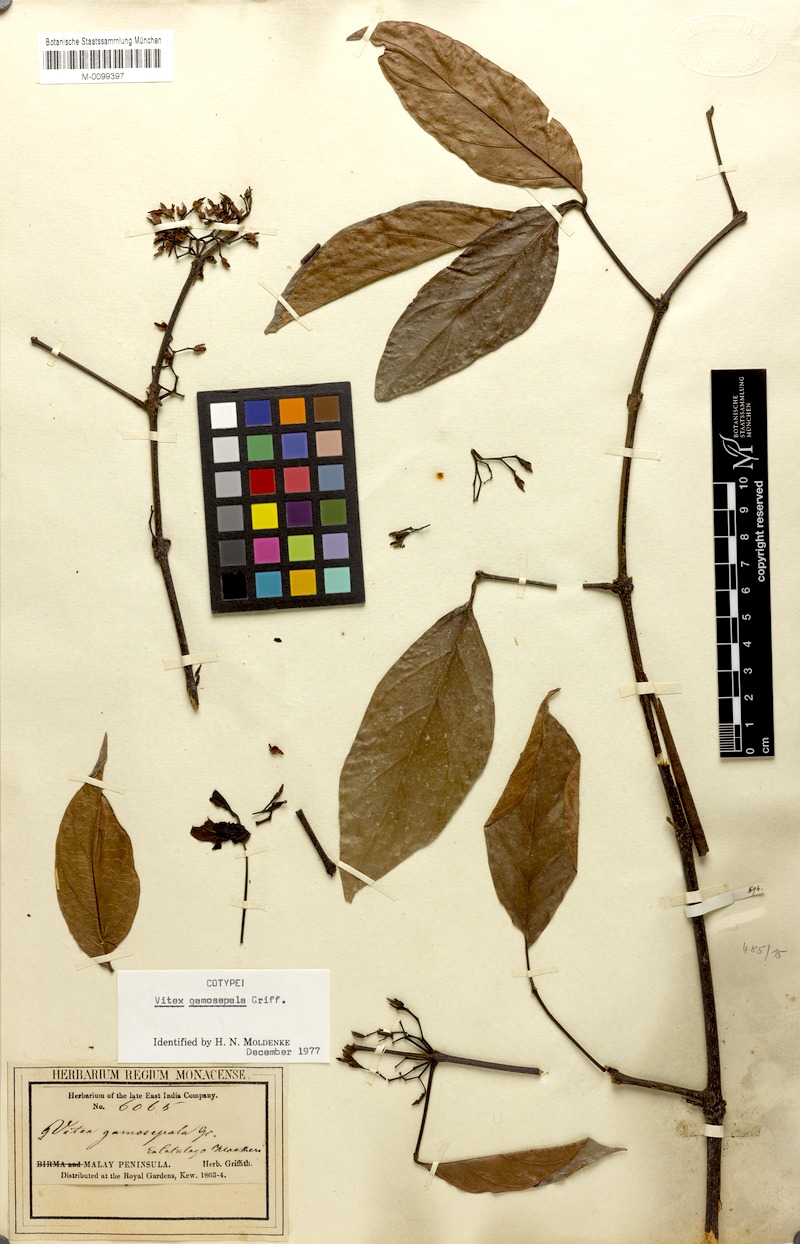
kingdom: Plantae
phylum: Tracheophyta
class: Magnoliopsida
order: Lamiales
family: Lamiaceae
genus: Vitex
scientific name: Vitex gamosepala
